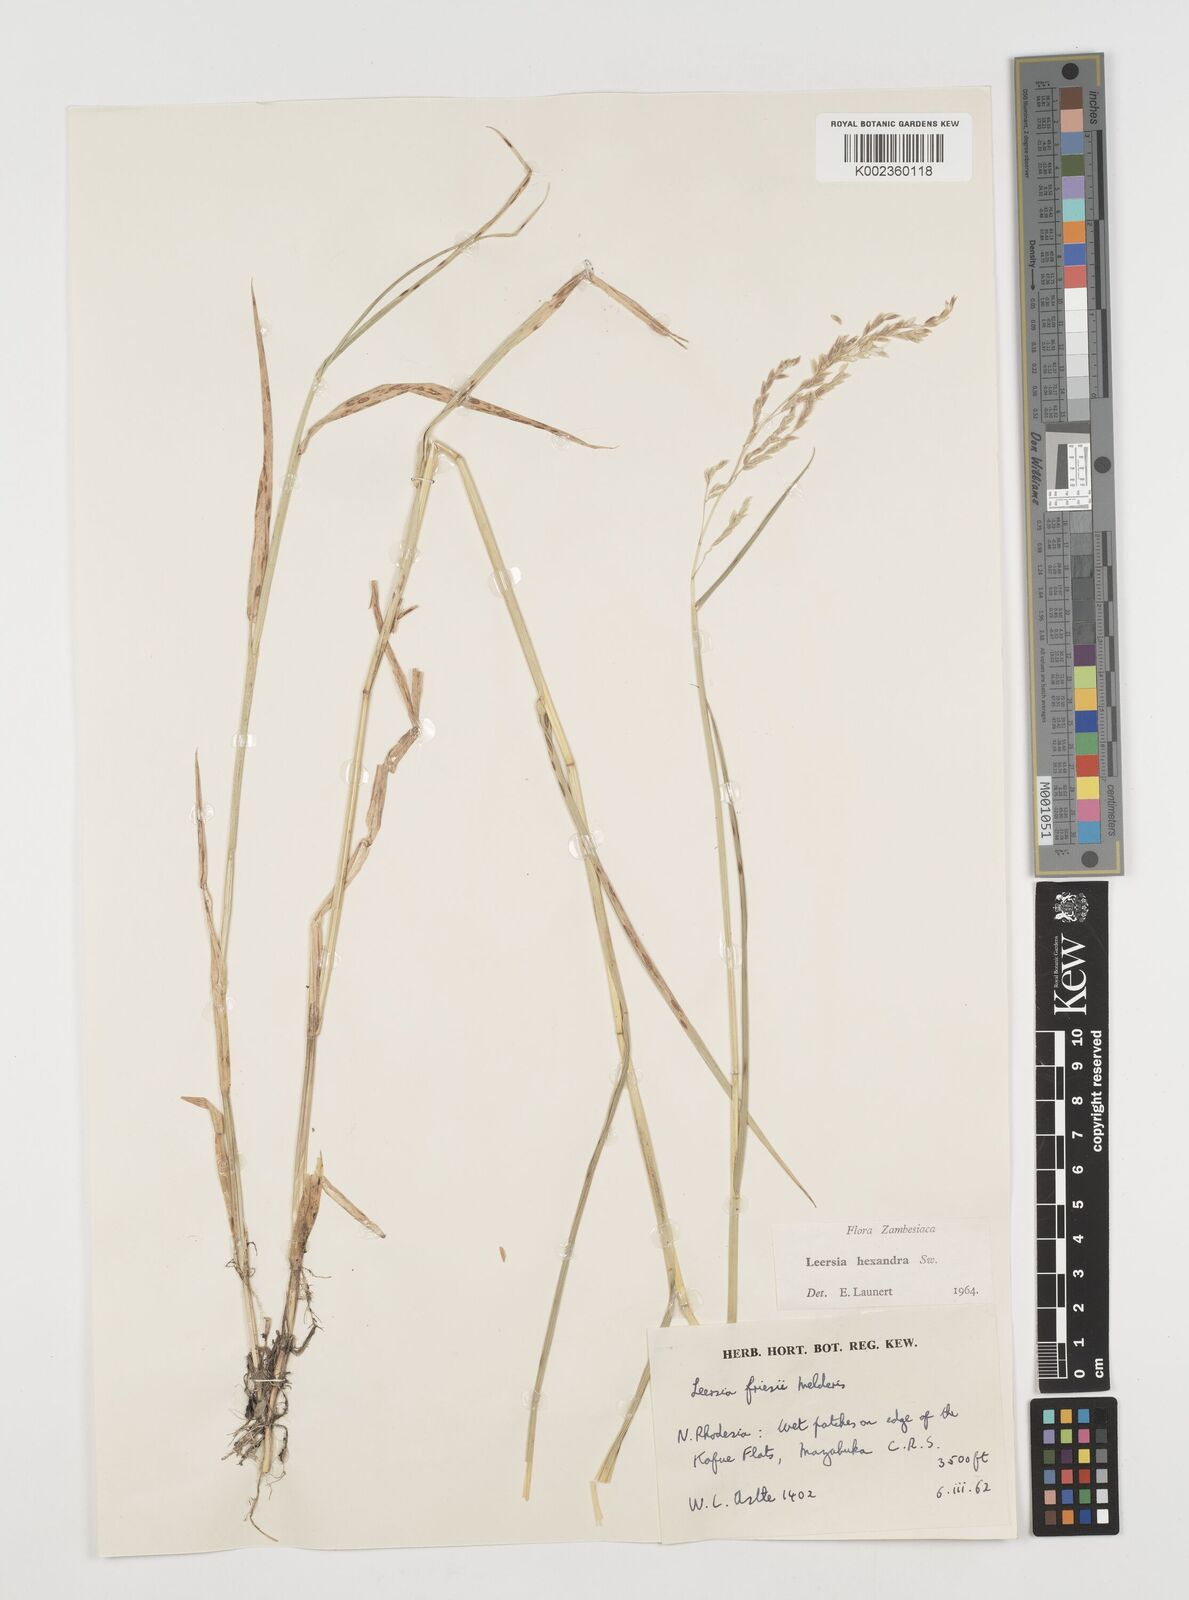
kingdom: Plantae
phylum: Tracheophyta
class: Liliopsida
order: Poales
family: Poaceae
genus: Leersia
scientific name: Leersia hexandra
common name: Southern cut grass
